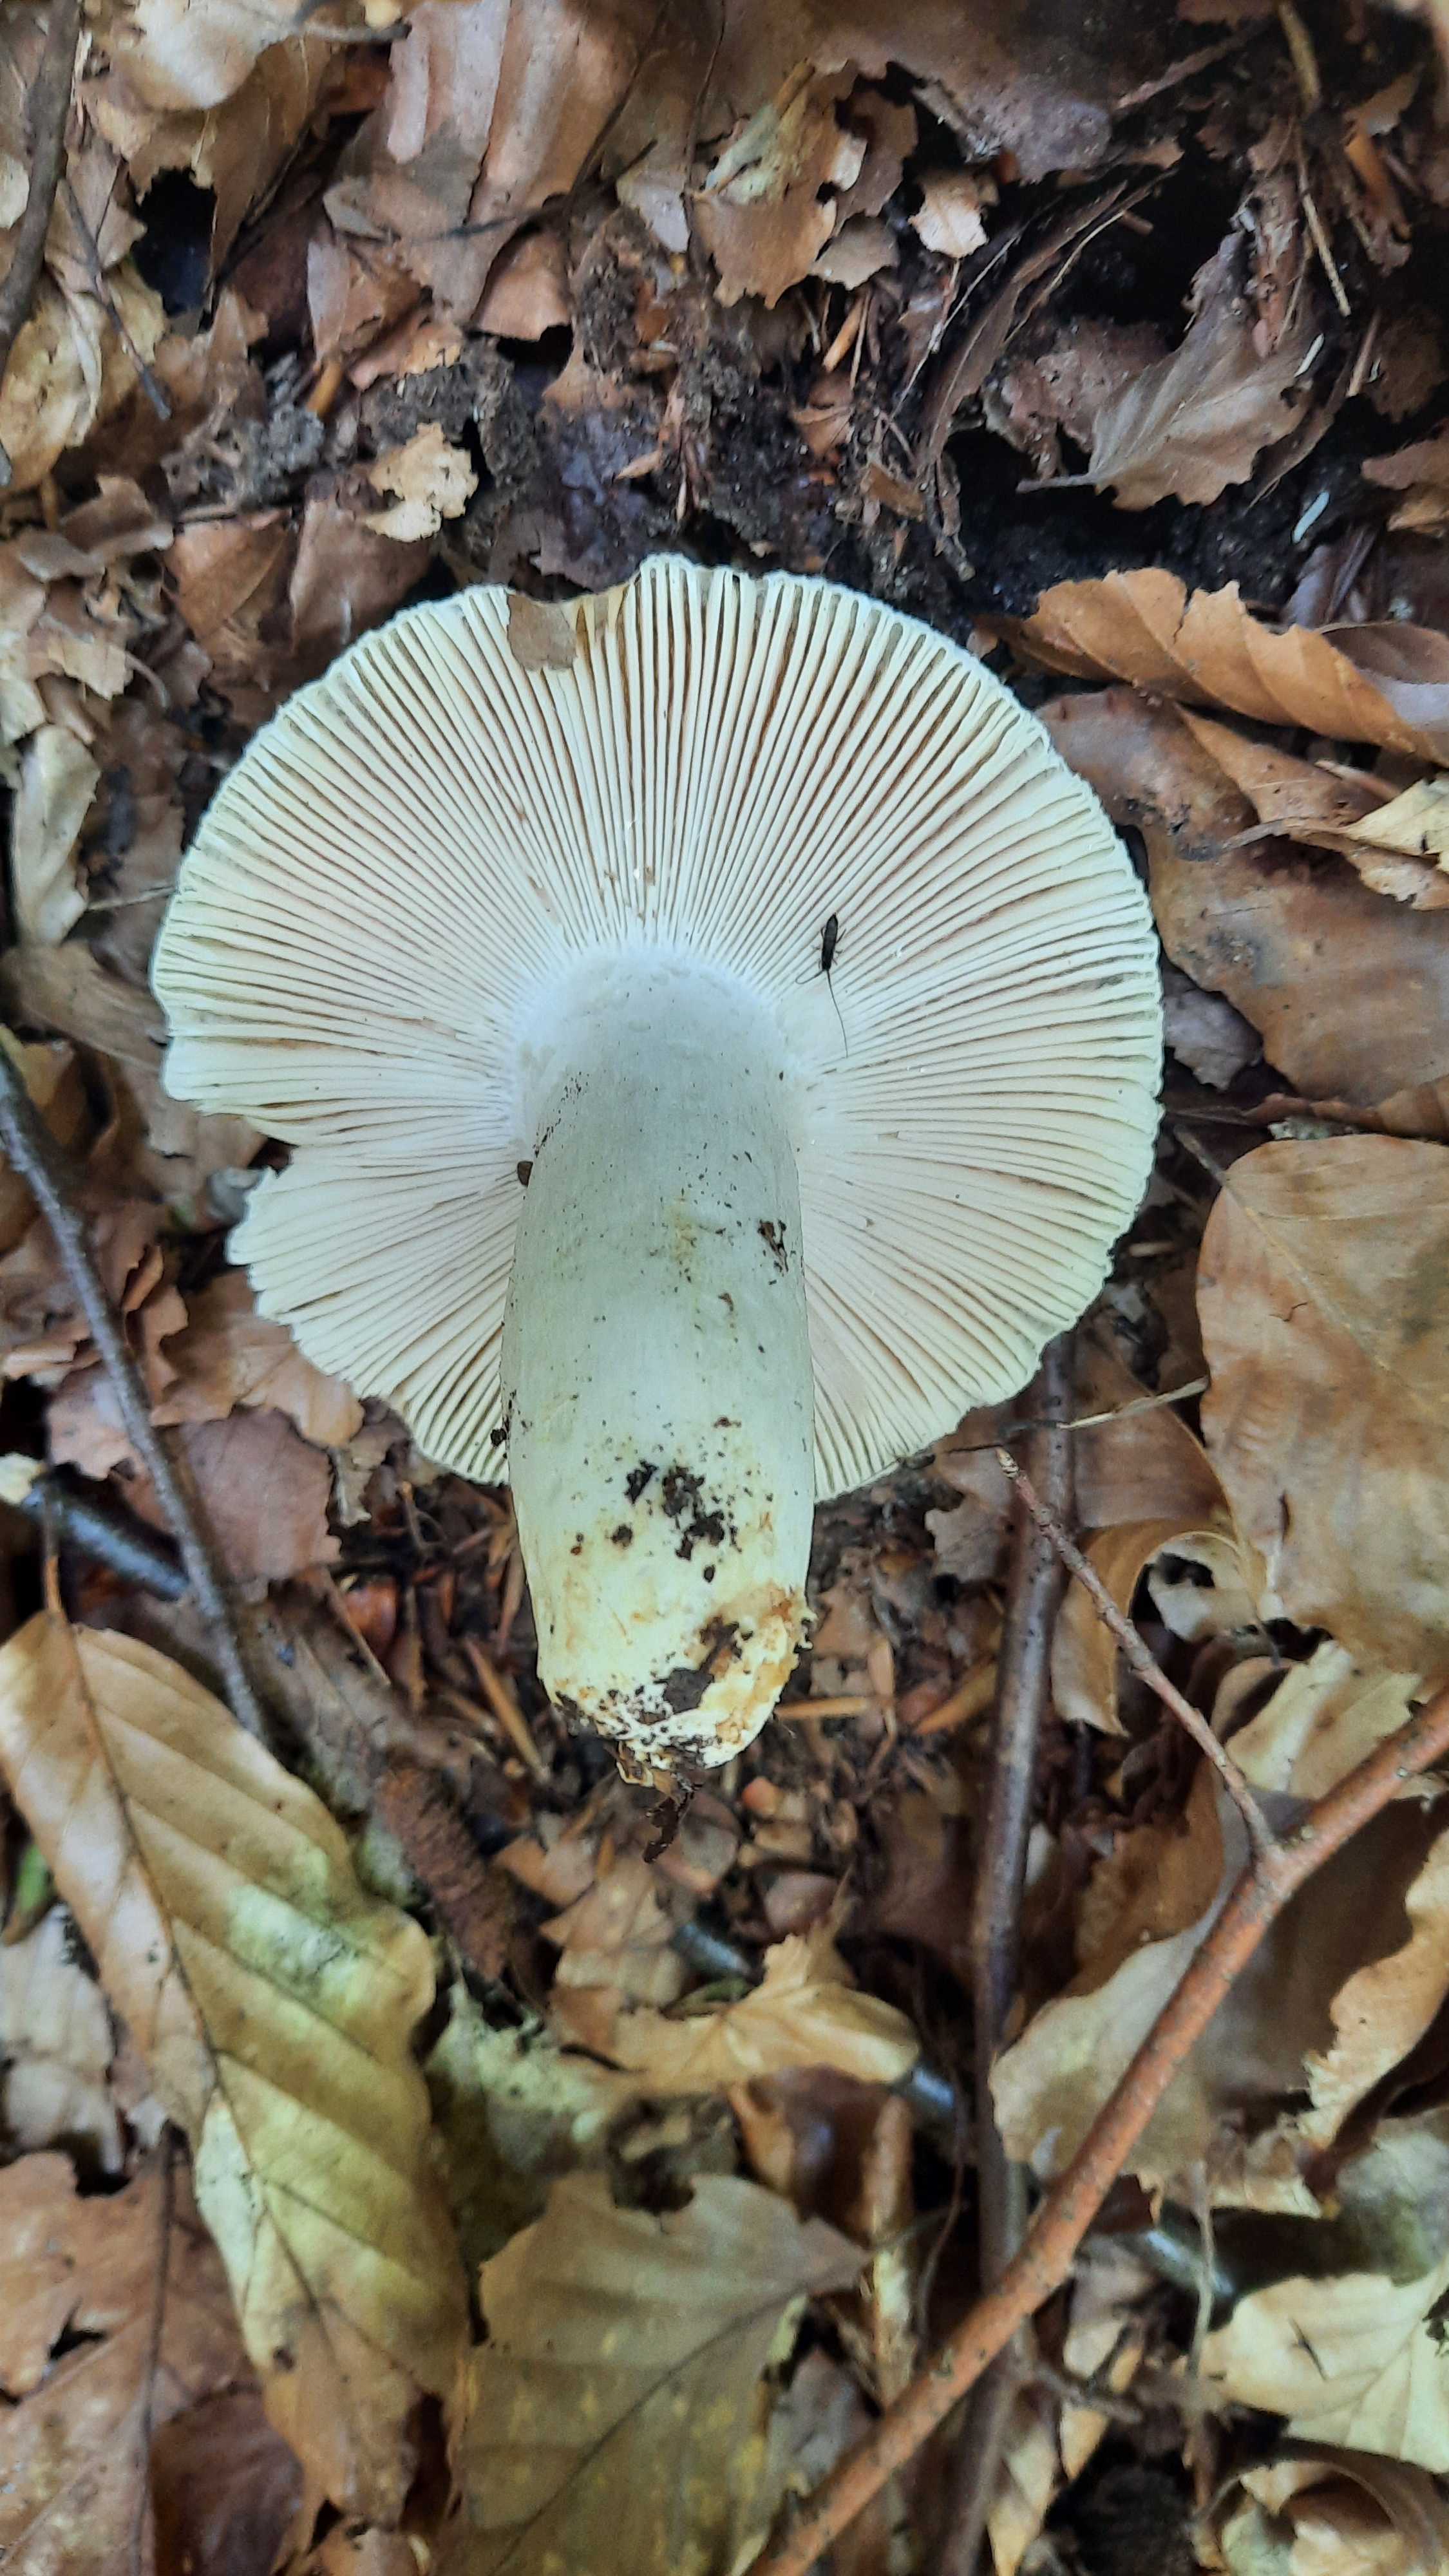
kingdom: Fungi
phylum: Basidiomycota
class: Agaricomycetes
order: Russulales
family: Russulaceae
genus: Russula
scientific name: Russula aeruginea
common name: græsgrøn skørhat
